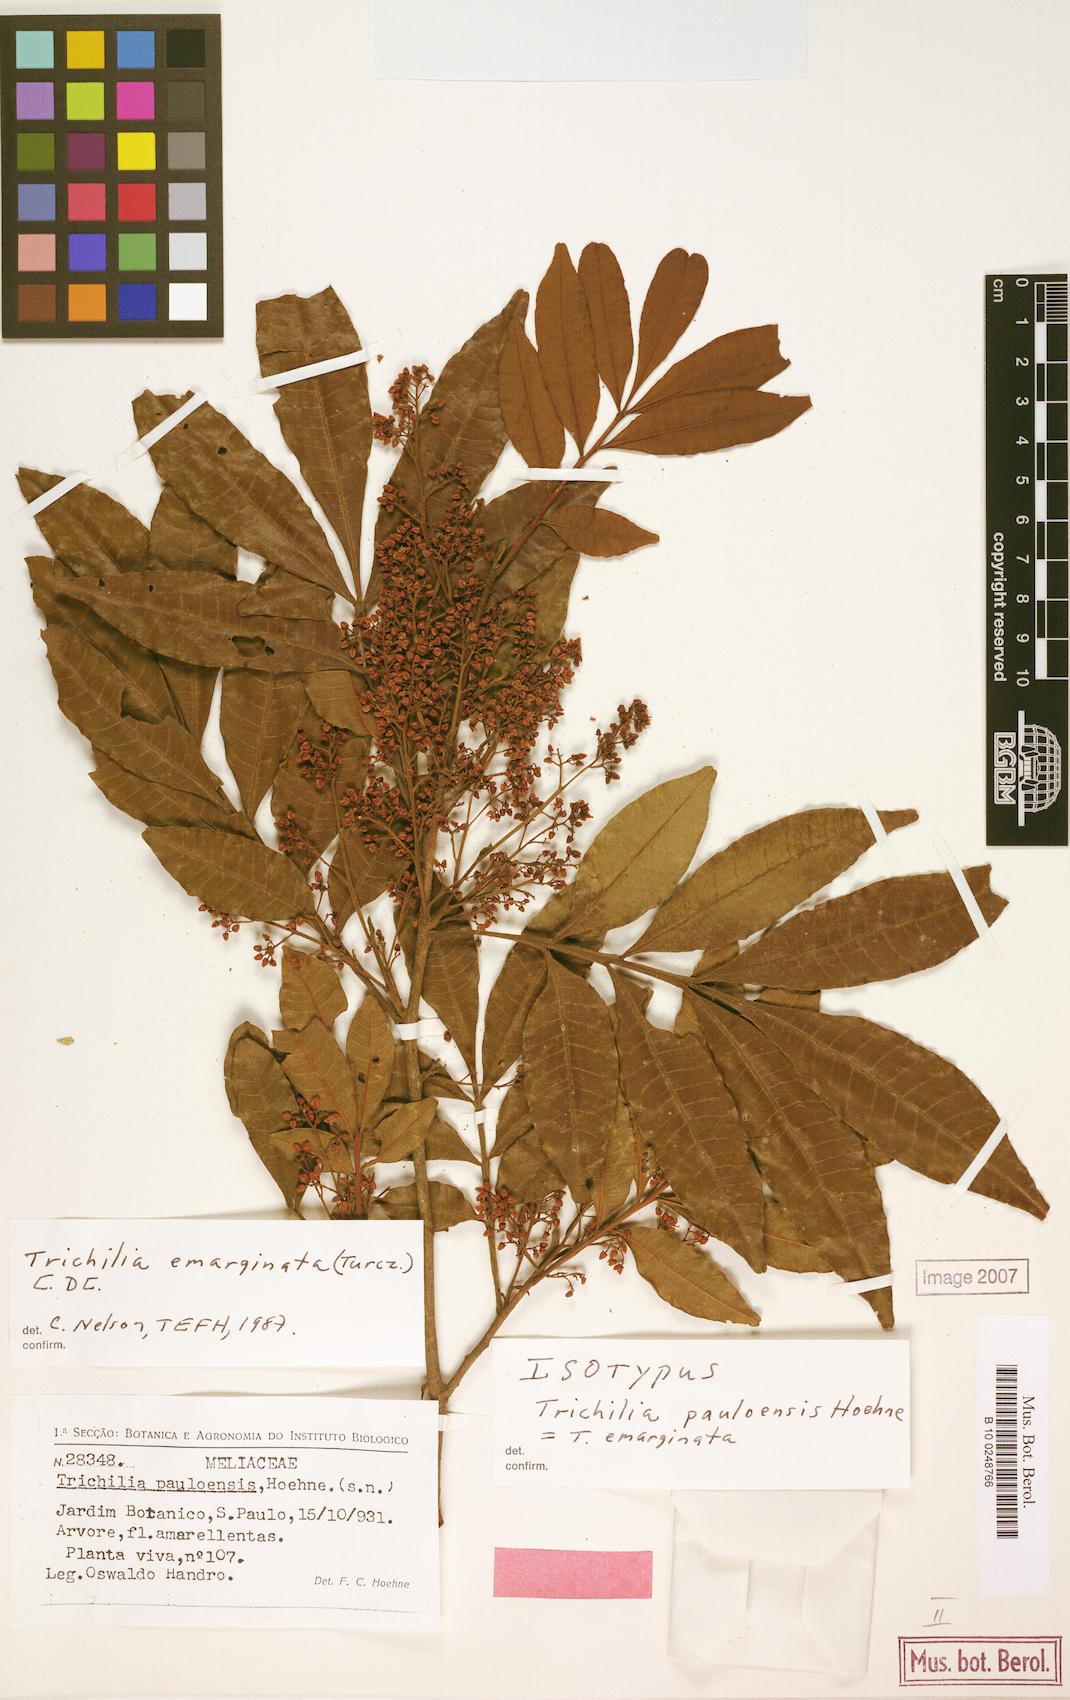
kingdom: Plantae
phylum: Tracheophyta
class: Magnoliopsida
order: Sapindales
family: Meliaceae
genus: Trichilia
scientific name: Trichilia emarginata
